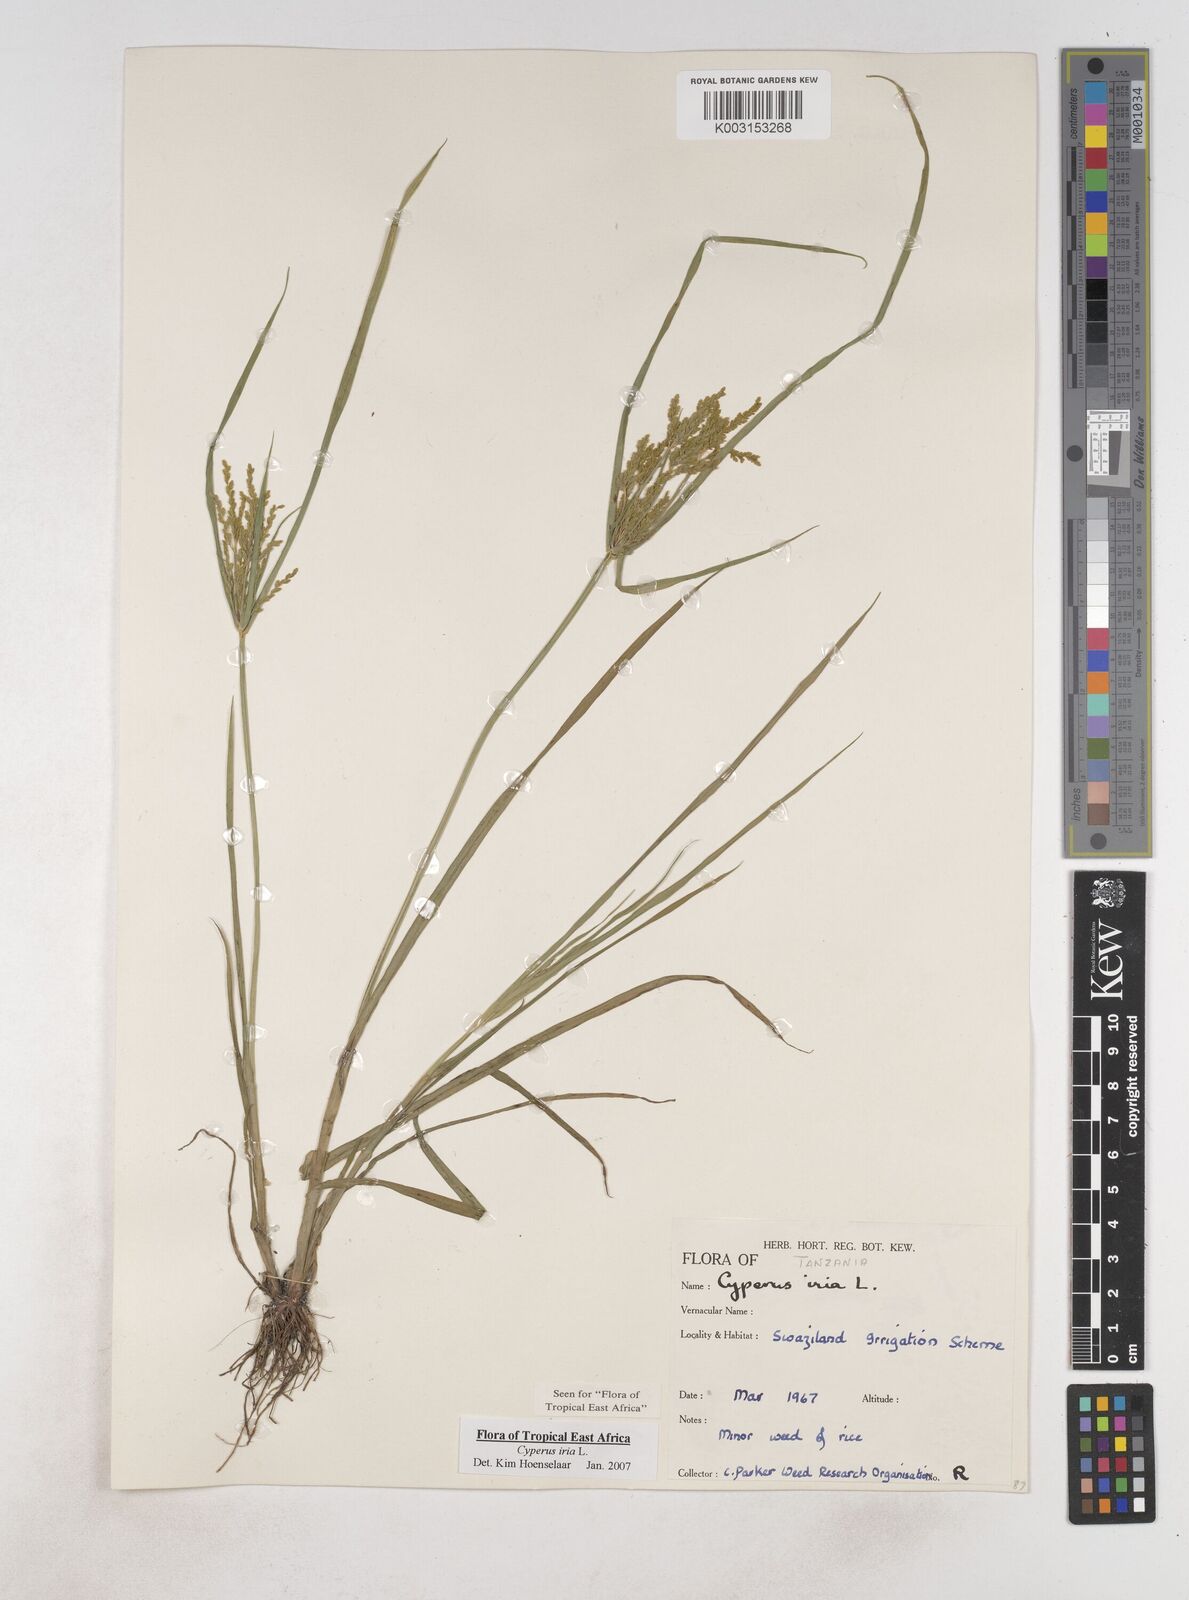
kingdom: Plantae
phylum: Tracheophyta
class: Liliopsida
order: Poales
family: Cyperaceae
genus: Cyperus
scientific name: Cyperus iria
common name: Ricefield flatsedge
